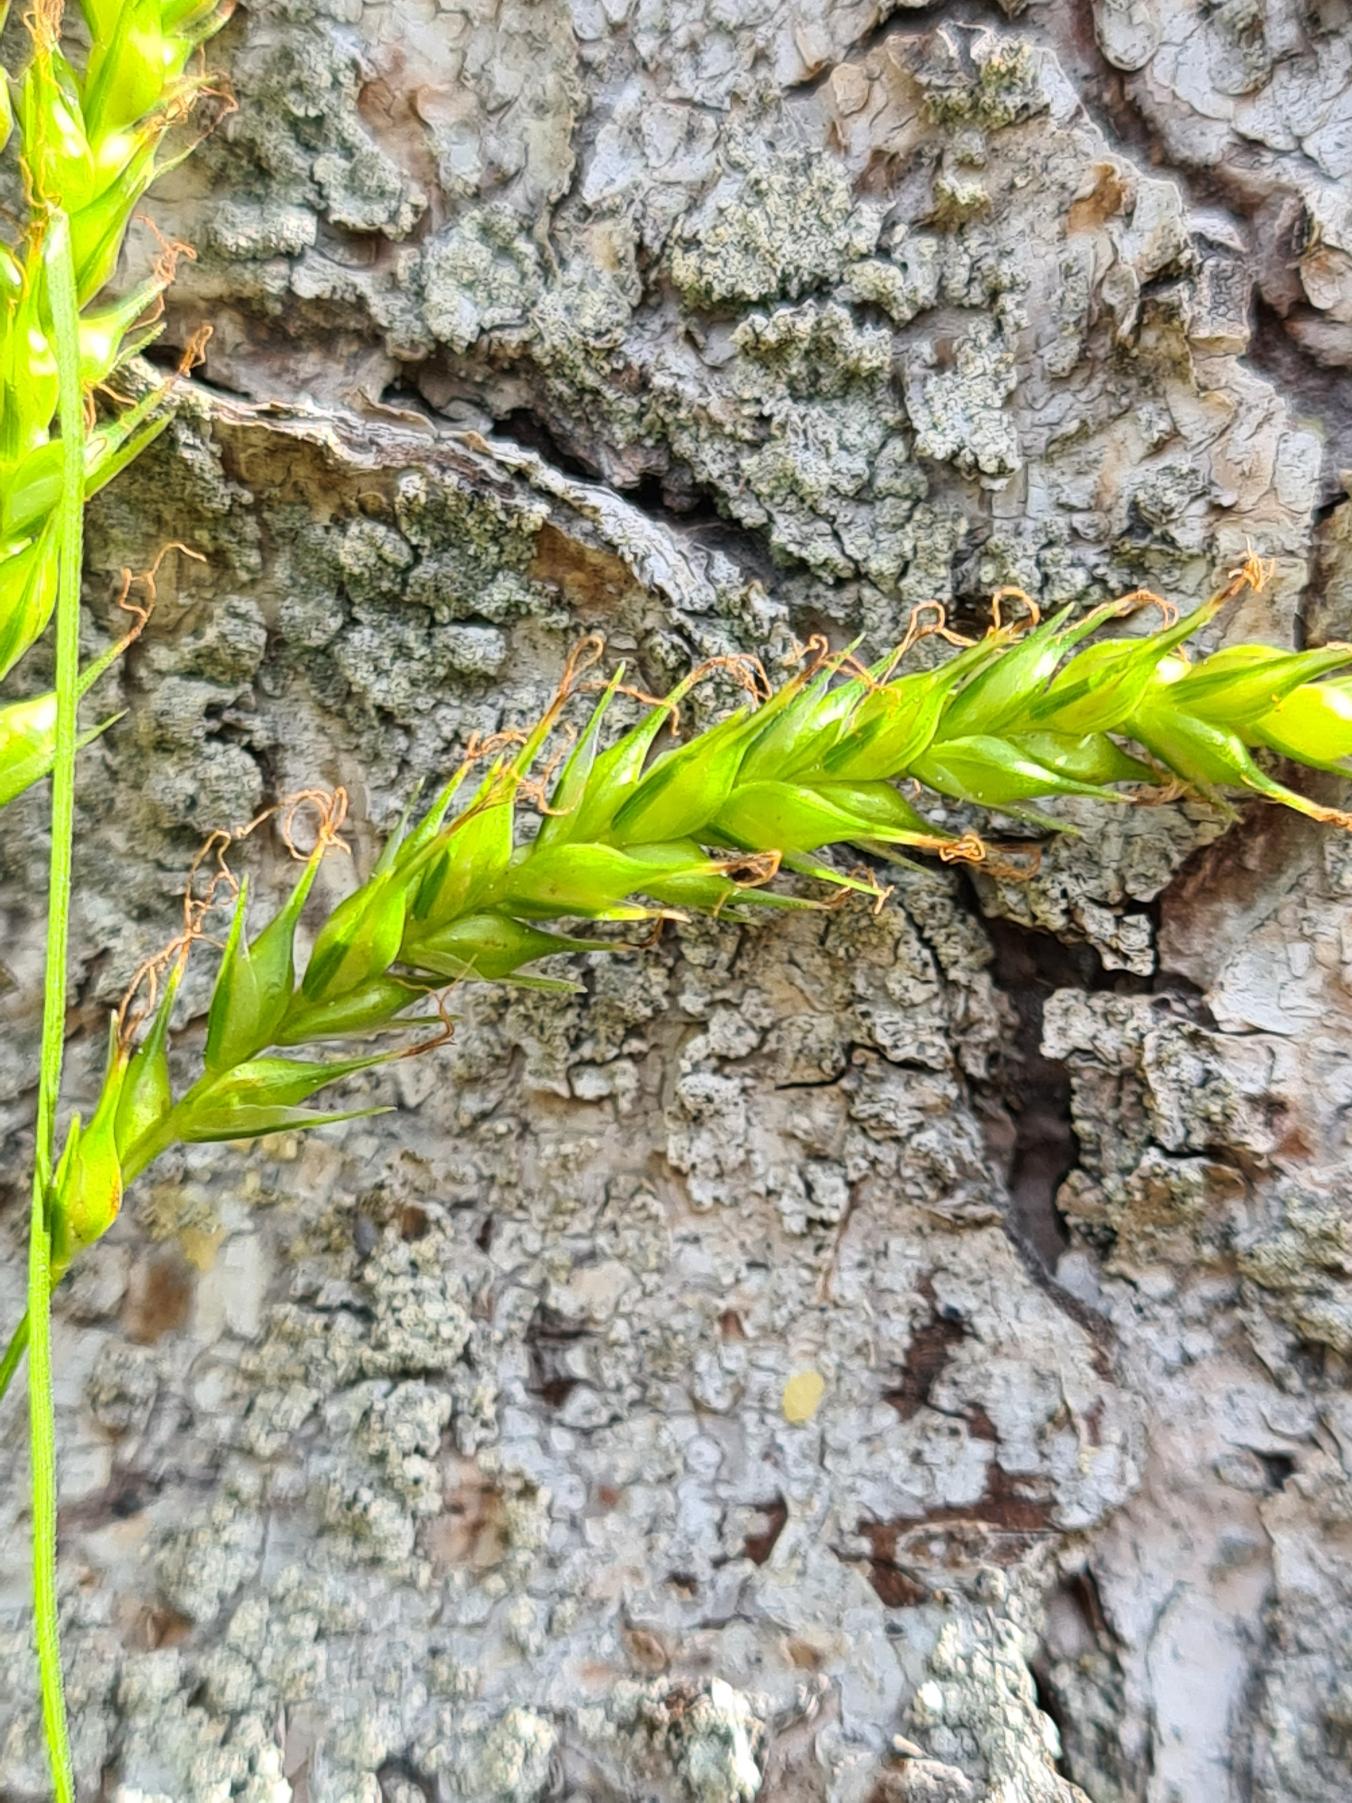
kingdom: Plantae
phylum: Tracheophyta
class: Liliopsida
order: Poales
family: Cyperaceae
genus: Carex
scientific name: Carex sylvatica
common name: Skov-star
